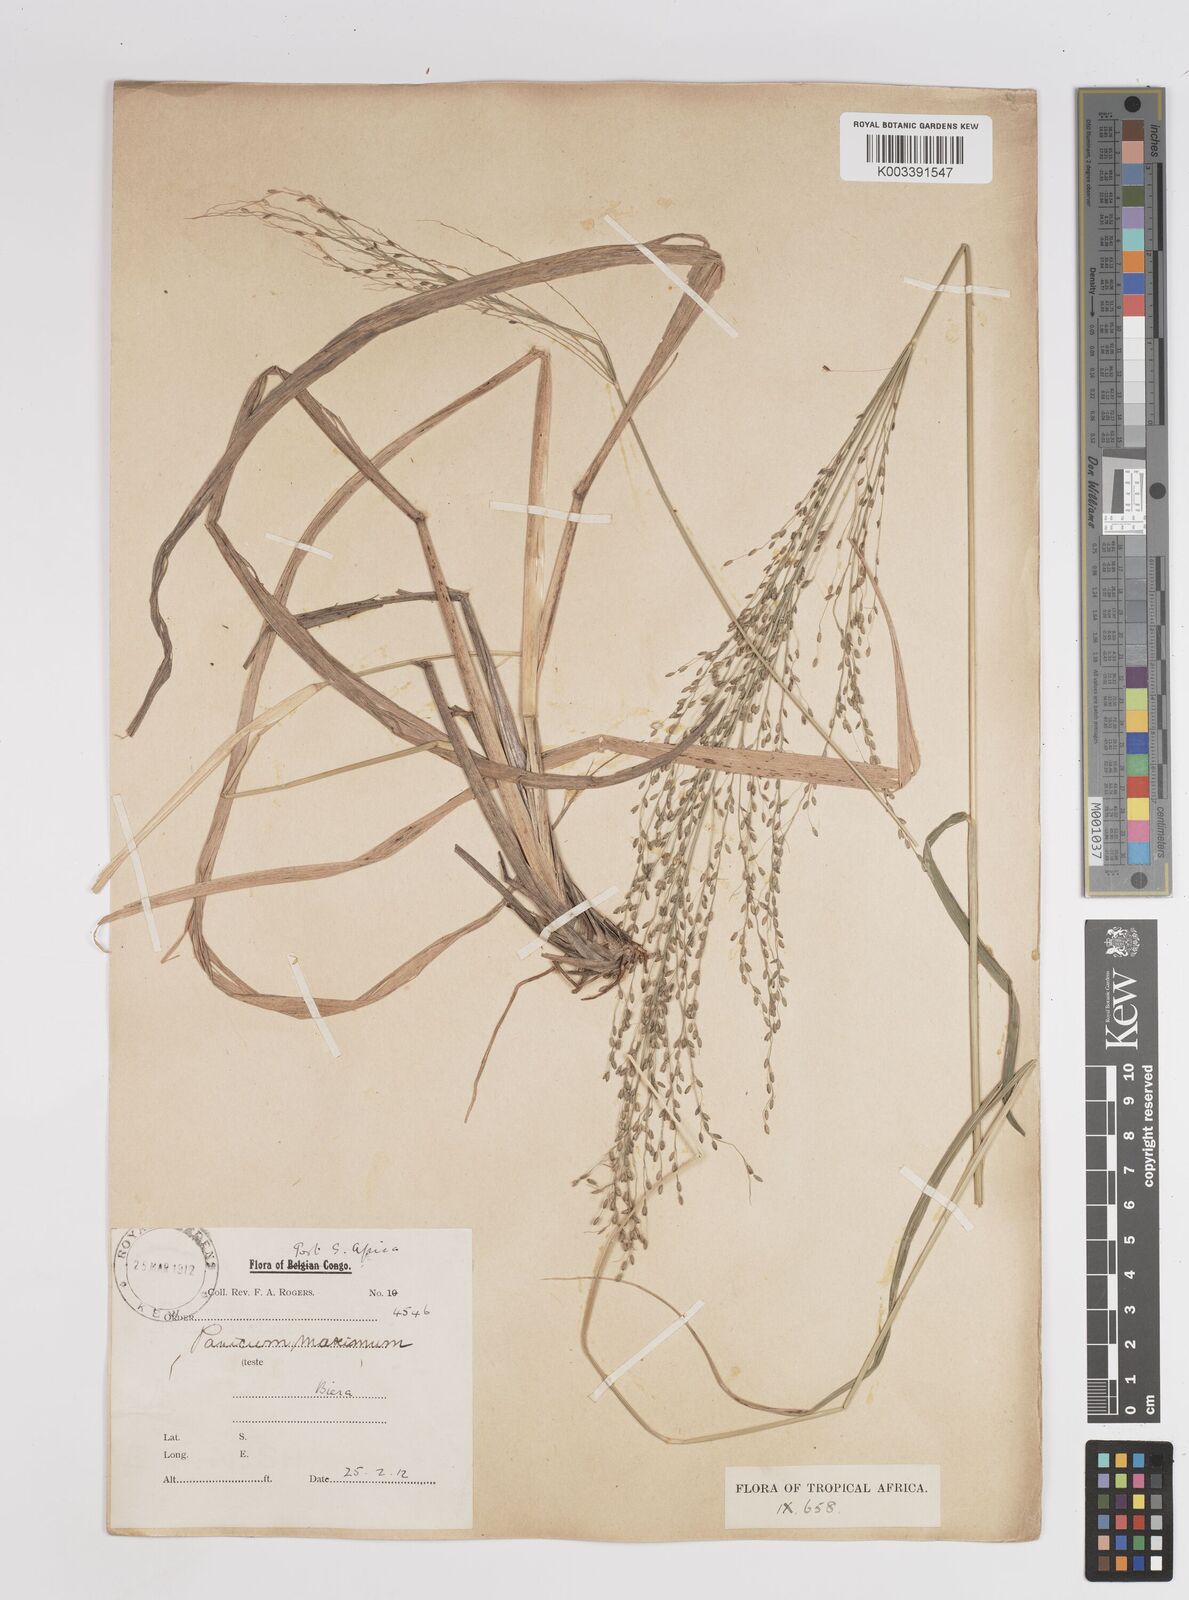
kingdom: Plantae
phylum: Tracheophyta
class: Liliopsida
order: Poales
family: Poaceae
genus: Megathyrsus
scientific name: Megathyrsus maximus
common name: Guineagrass
